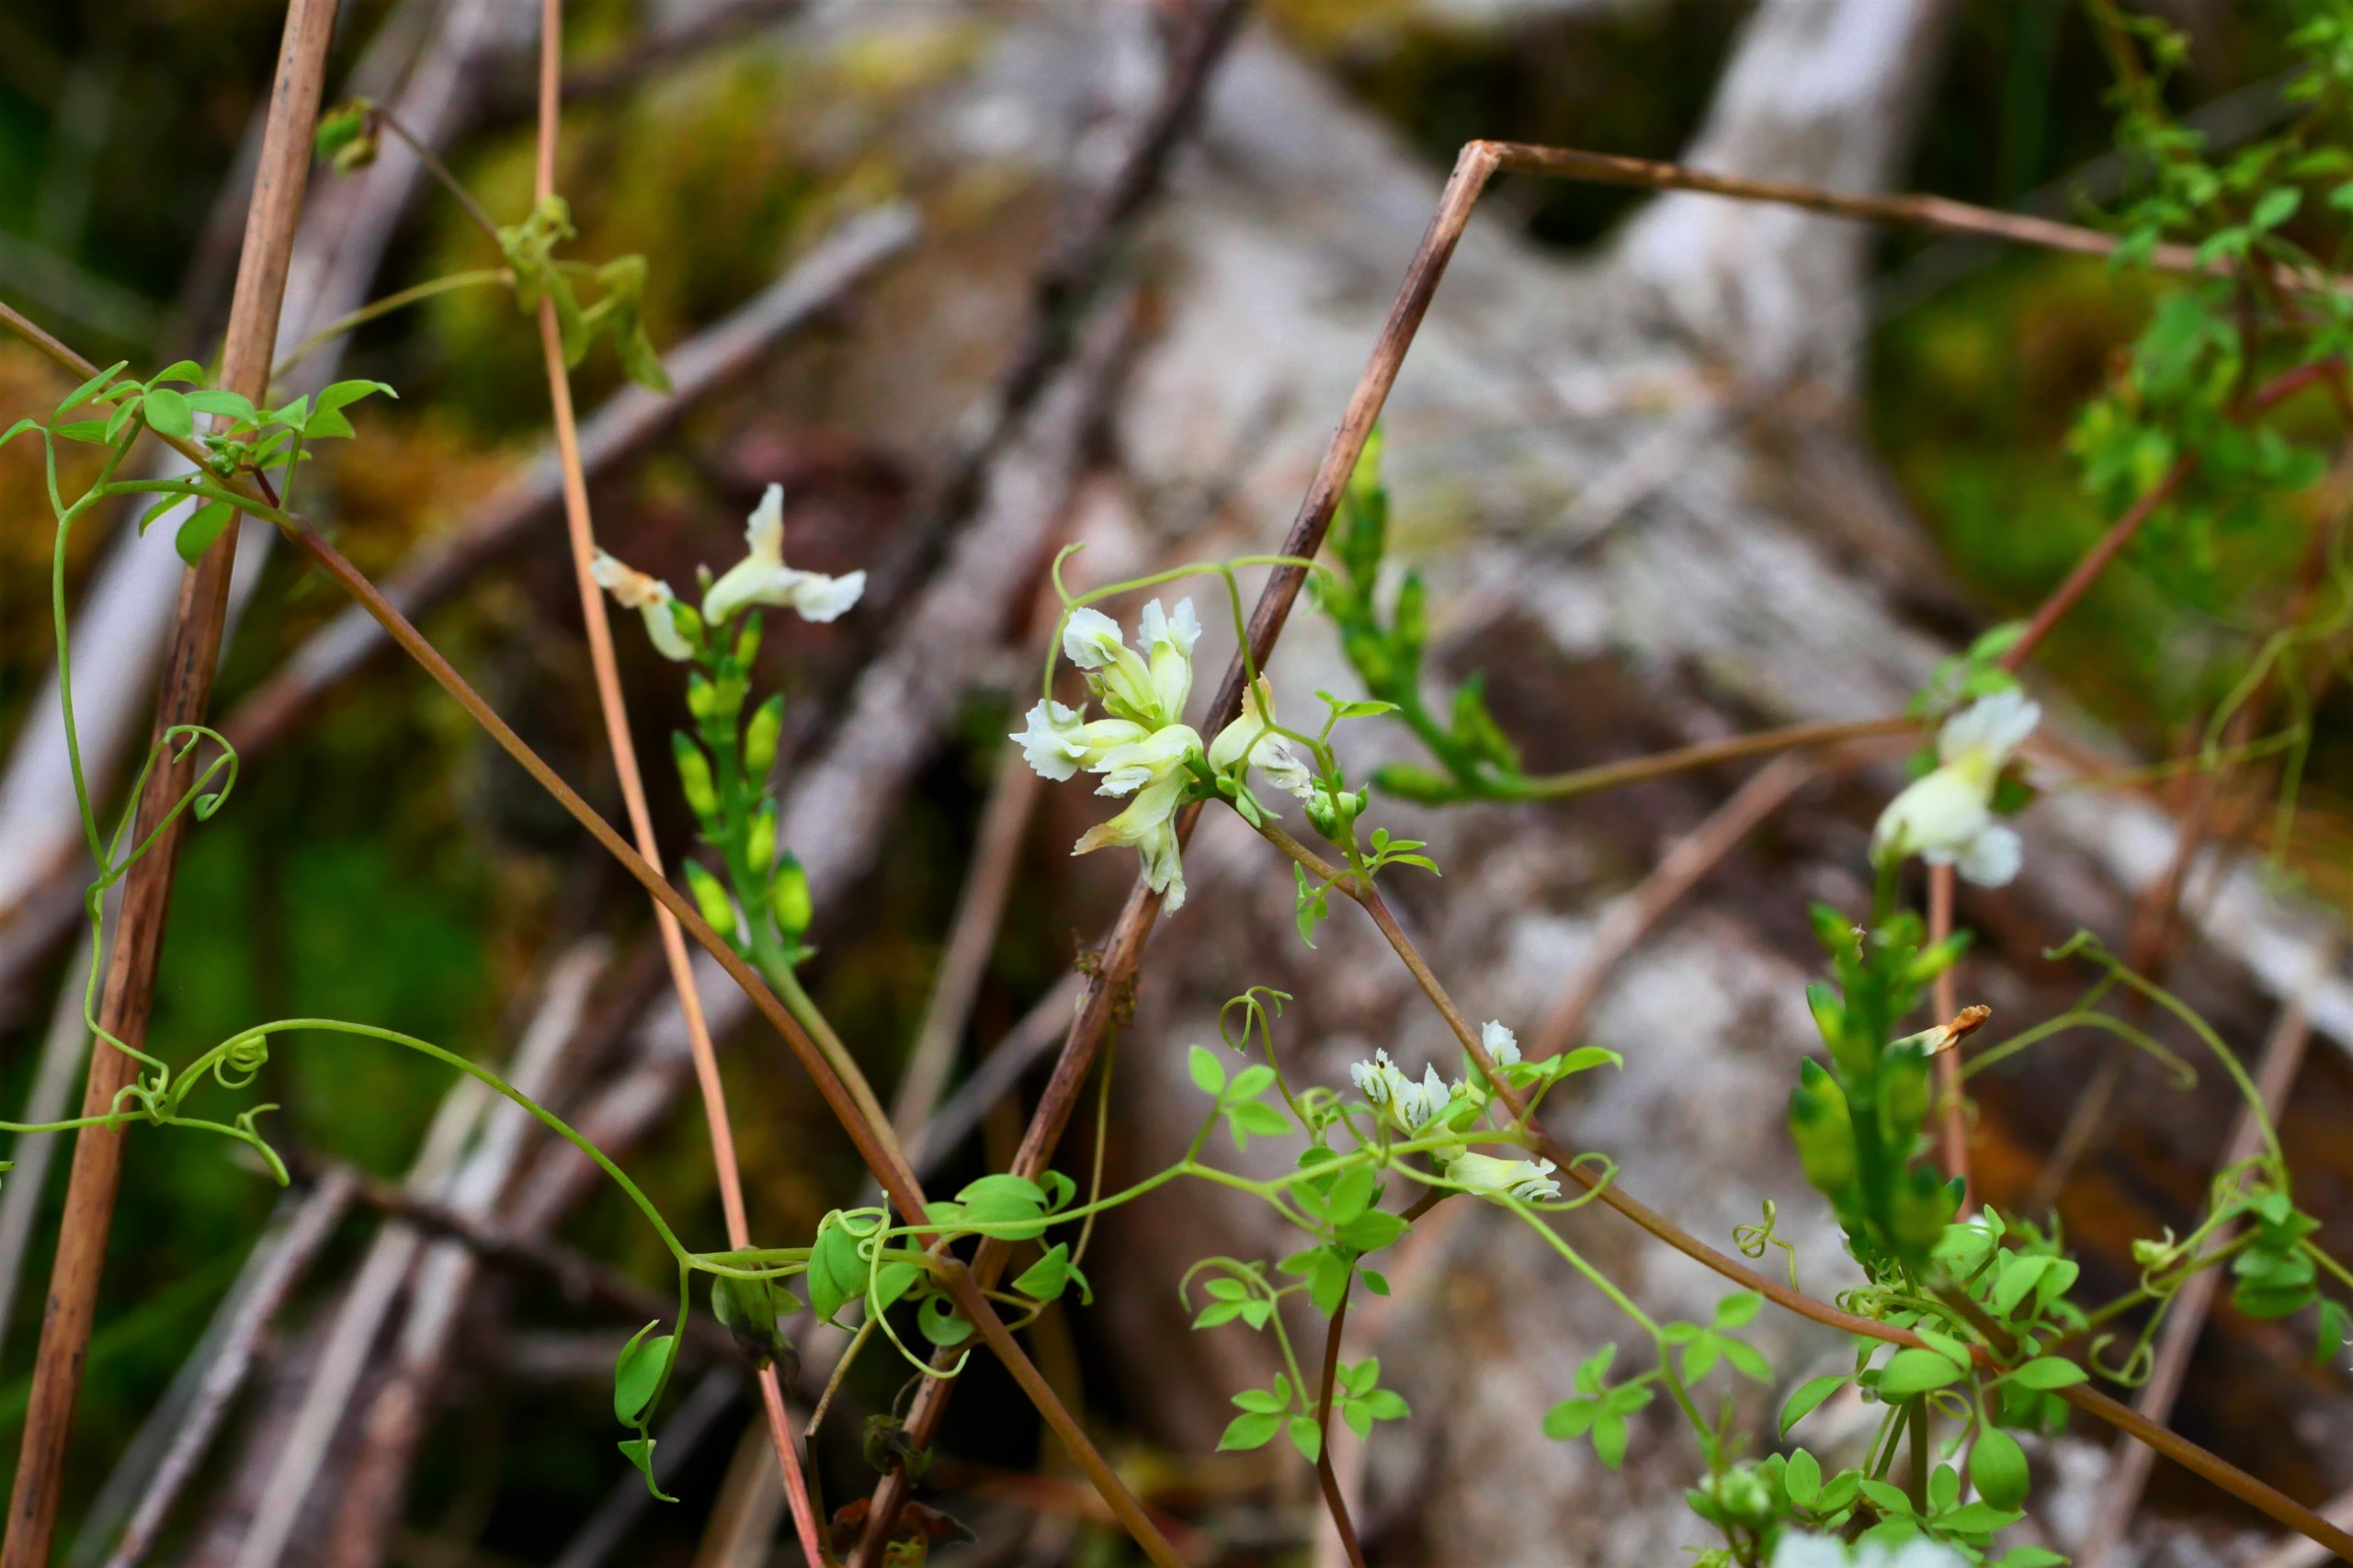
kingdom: Plantae
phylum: Tracheophyta
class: Magnoliopsida
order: Ranunculales
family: Papaveraceae
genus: Ceratocapnos
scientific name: Ceratocapnos claviculata
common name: Klatrende lærkespore
